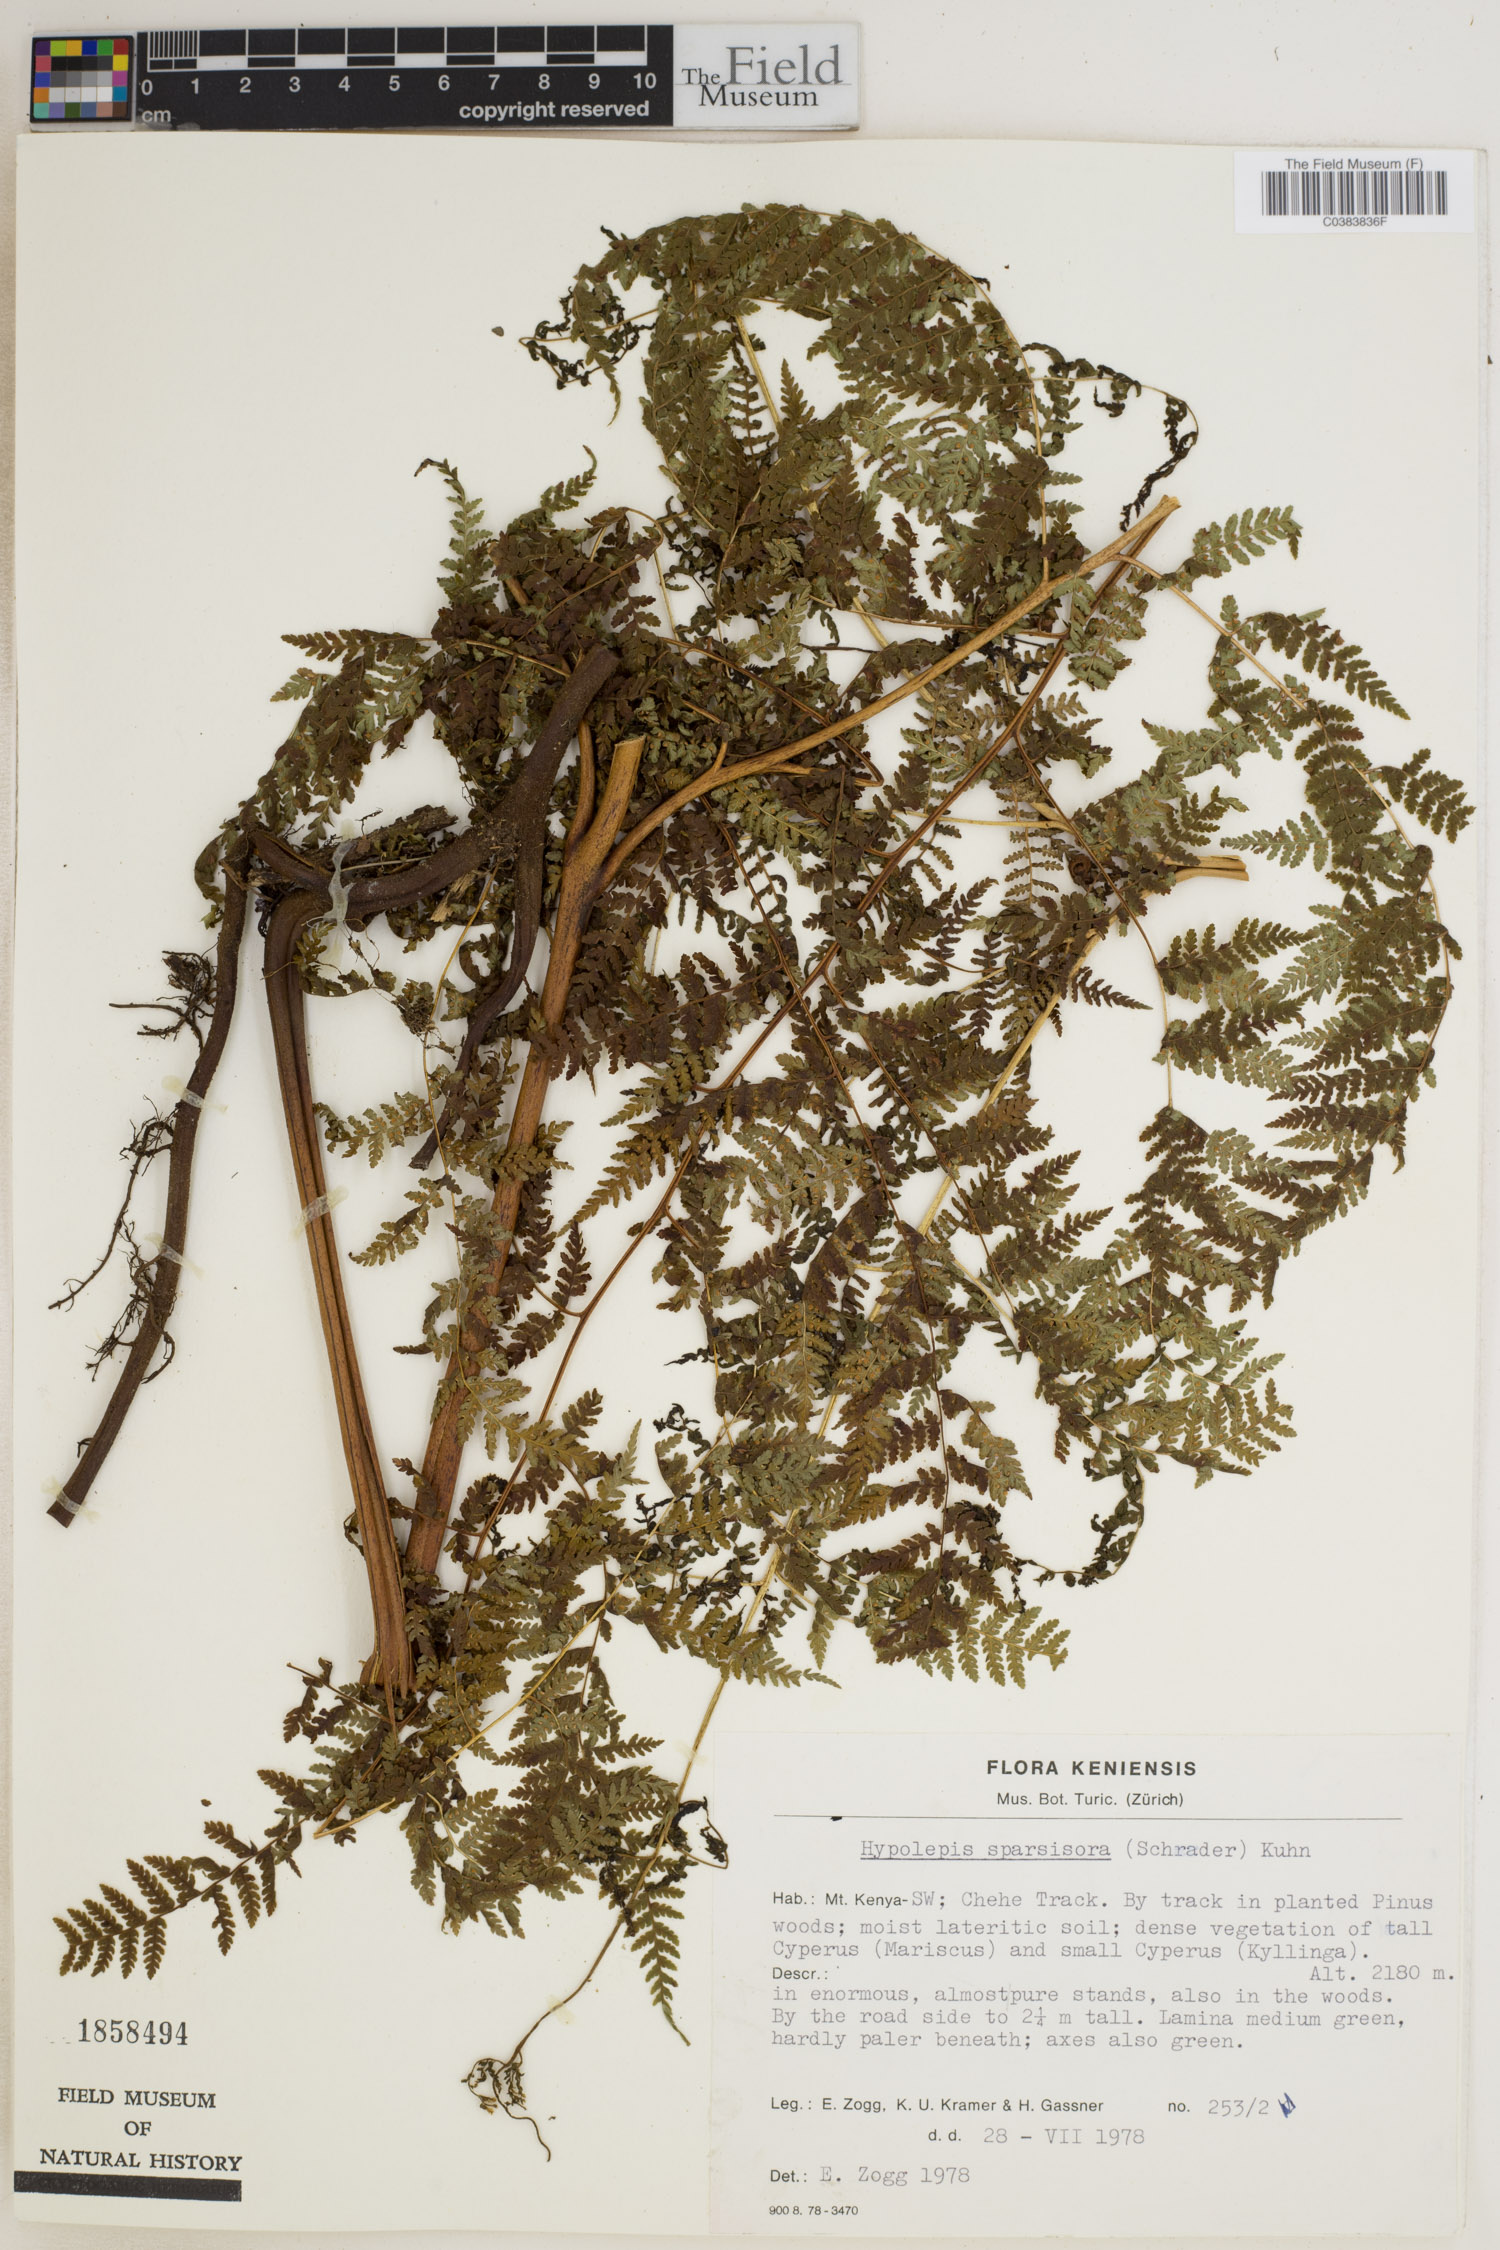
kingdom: Plantae
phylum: Tracheophyta
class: Polypodiopsida
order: Polypodiales
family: Dennstaedtiaceae
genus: Hypolepis
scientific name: Hypolepis sparsisora
